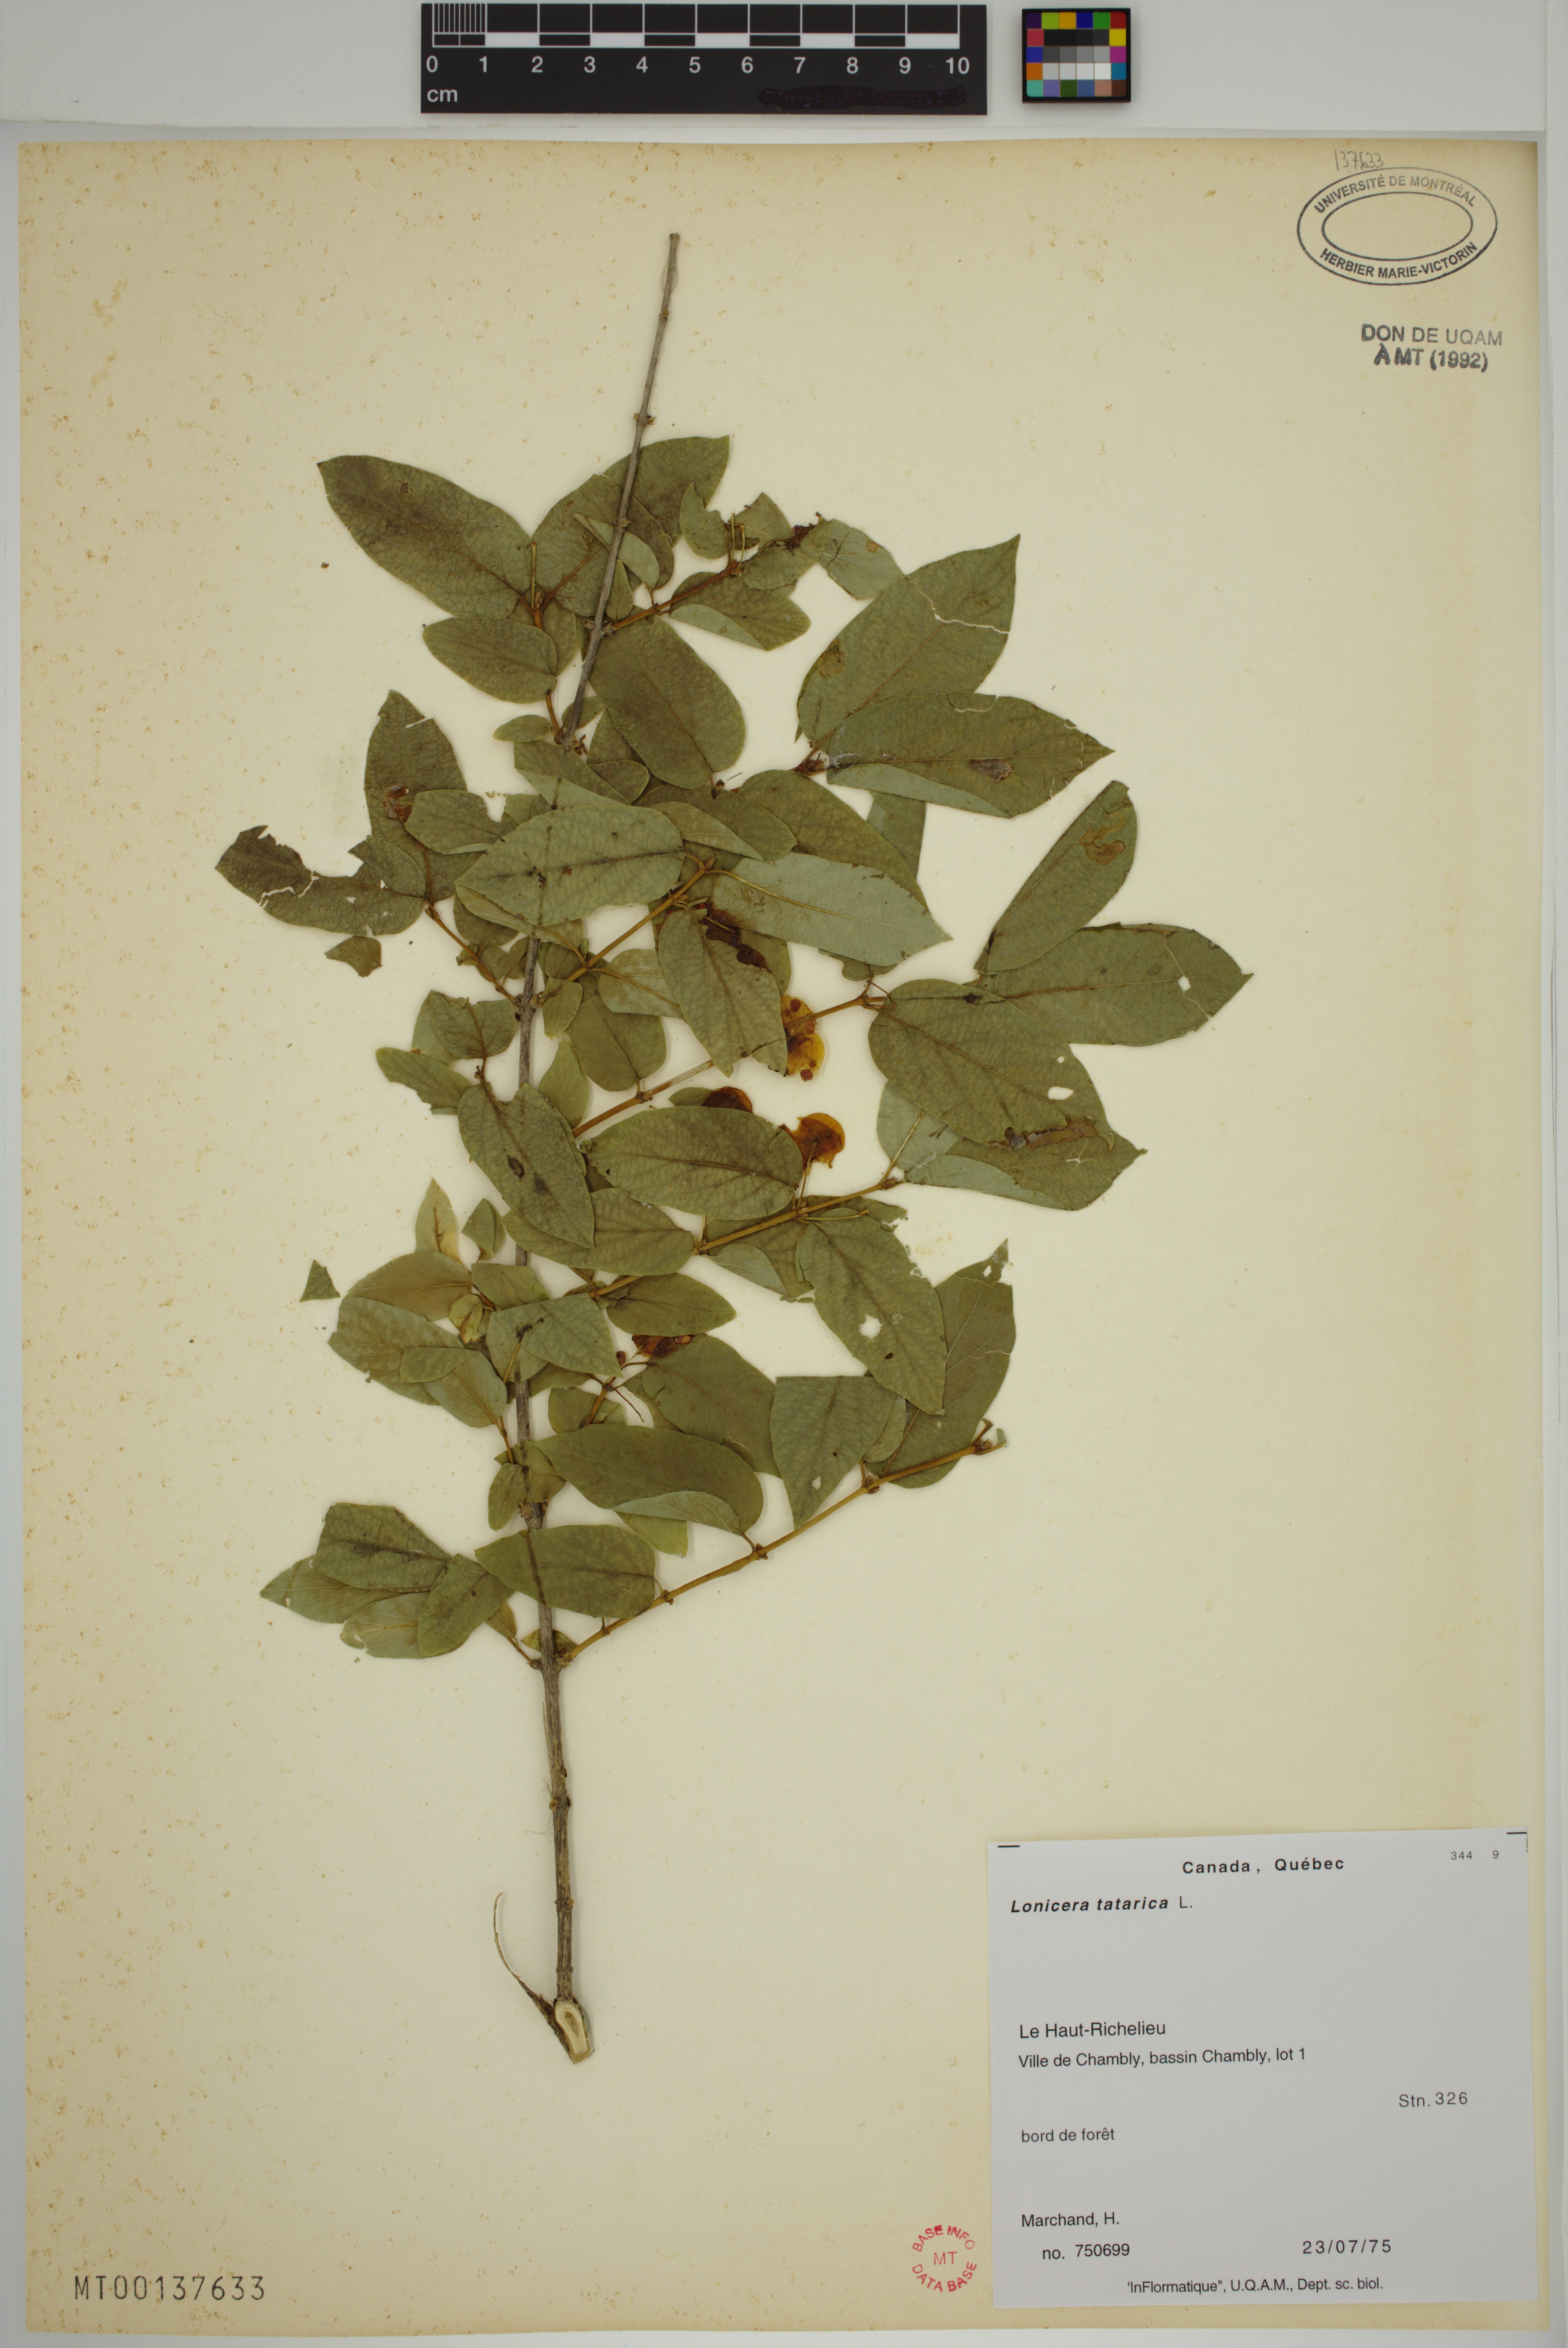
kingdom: Plantae
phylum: Tracheophyta
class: Magnoliopsida
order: Dipsacales
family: Caprifoliaceae
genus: Lonicera
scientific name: Lonicera tatarica
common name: Tatarian honeysuckle
